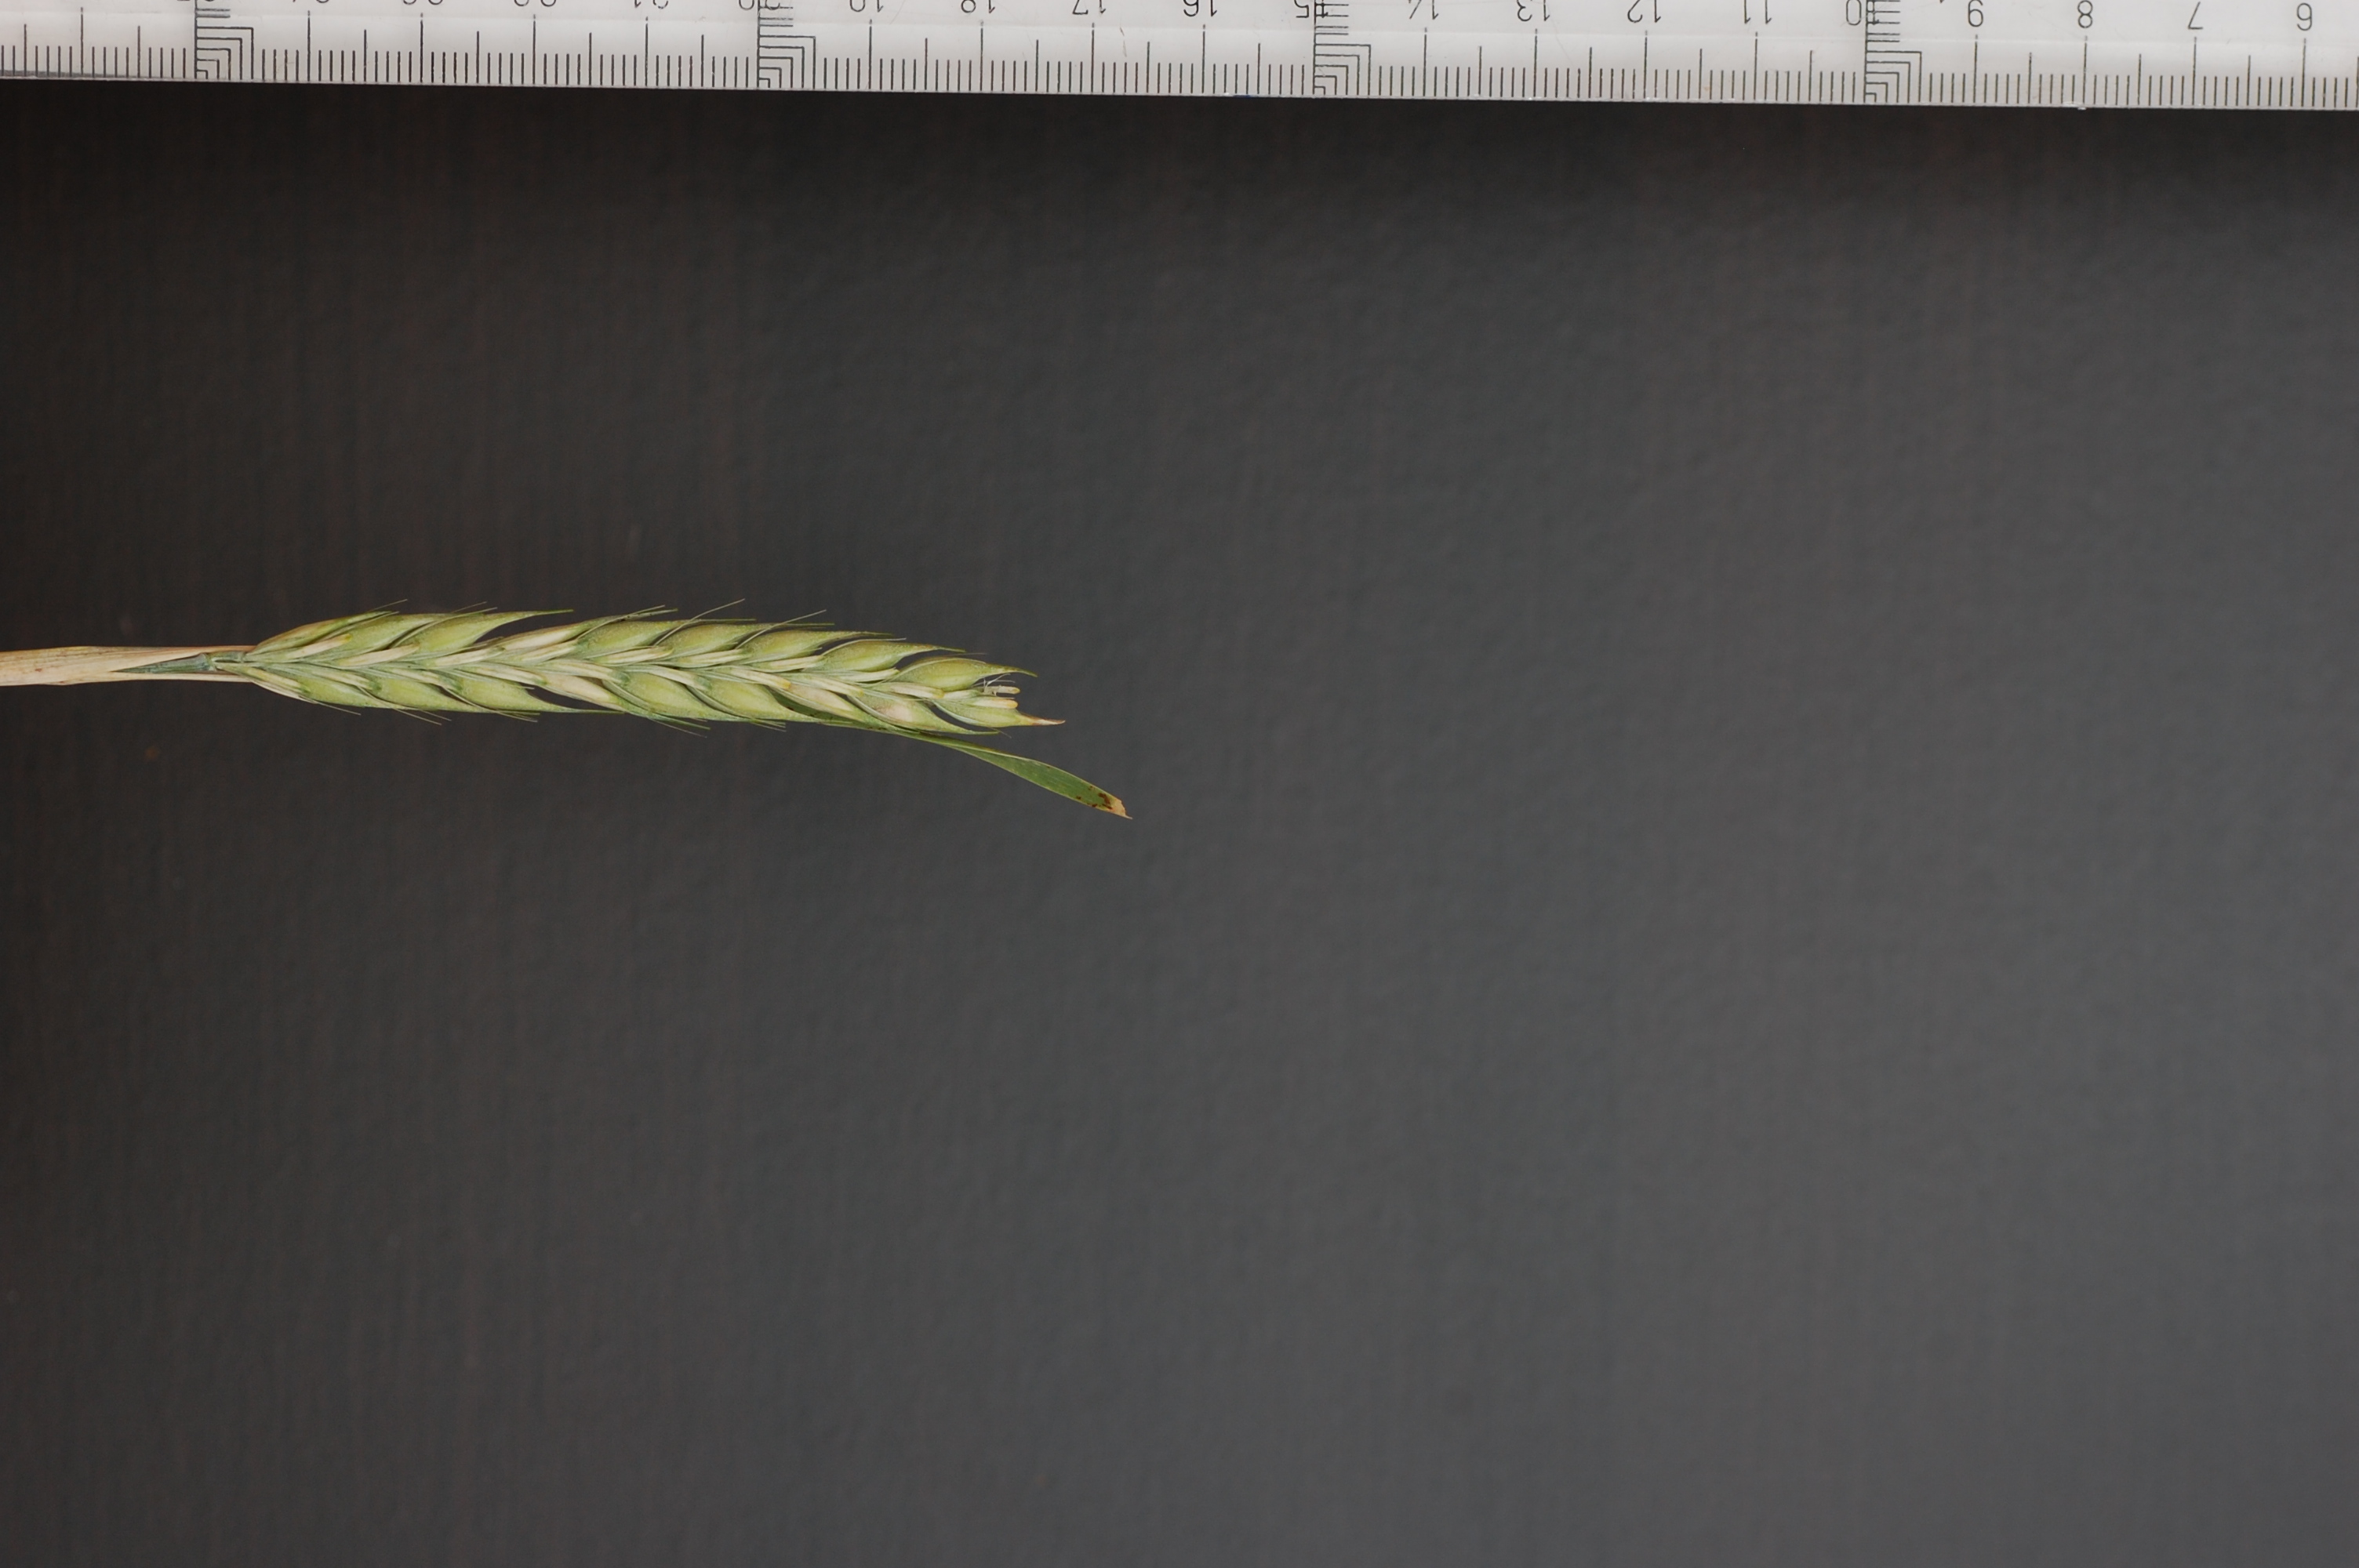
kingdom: Plantae
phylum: Tracheophyta
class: Liliopsida
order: Poales
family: Poaceae
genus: Hordeum
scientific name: Hordeum vulgare
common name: Common barley
